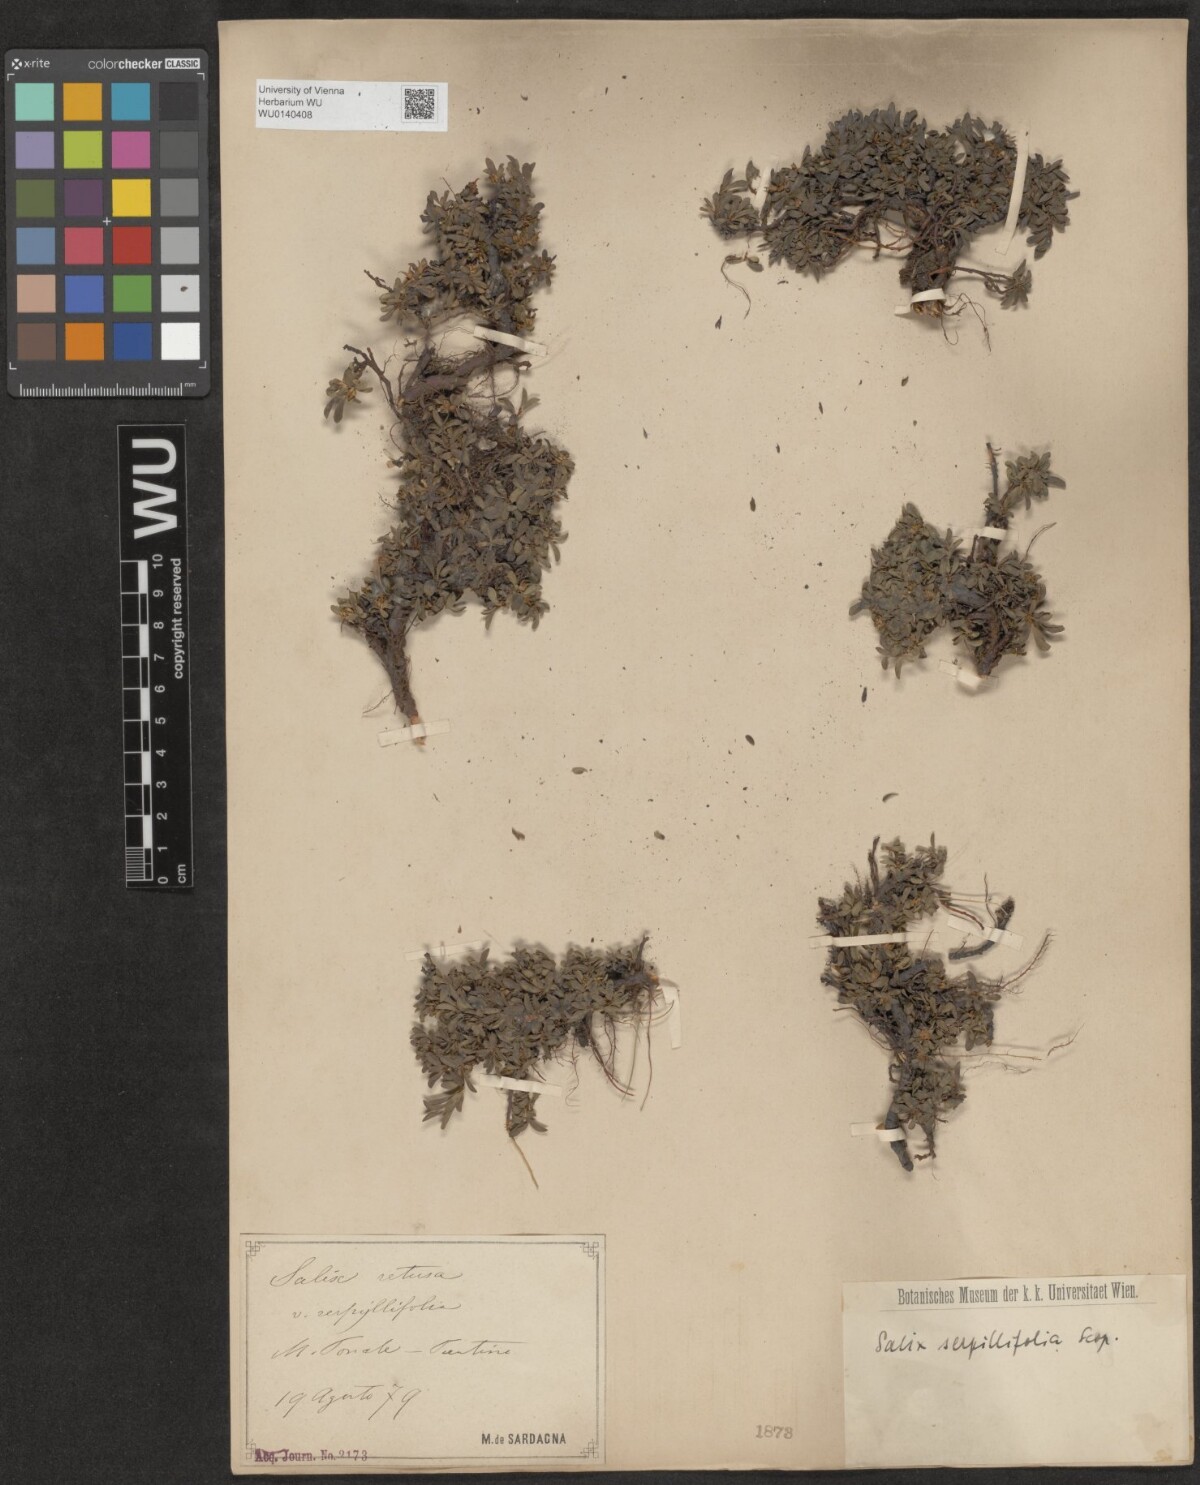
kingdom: Plantae
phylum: Tracheophyta
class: Magnoliopsida
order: Malpighiales
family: Salicaceae
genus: Salix
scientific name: Salix serpillifolia
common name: Thyme-leaf willow
